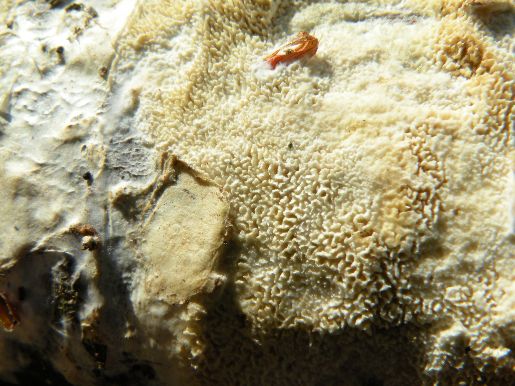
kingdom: Fungi
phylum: Basidiomycota
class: Agaricomycetes
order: Hymenochaetales
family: Schizoporaceae
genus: Schizopora
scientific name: Schizopora paradoxa
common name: hvid tandsvamp
